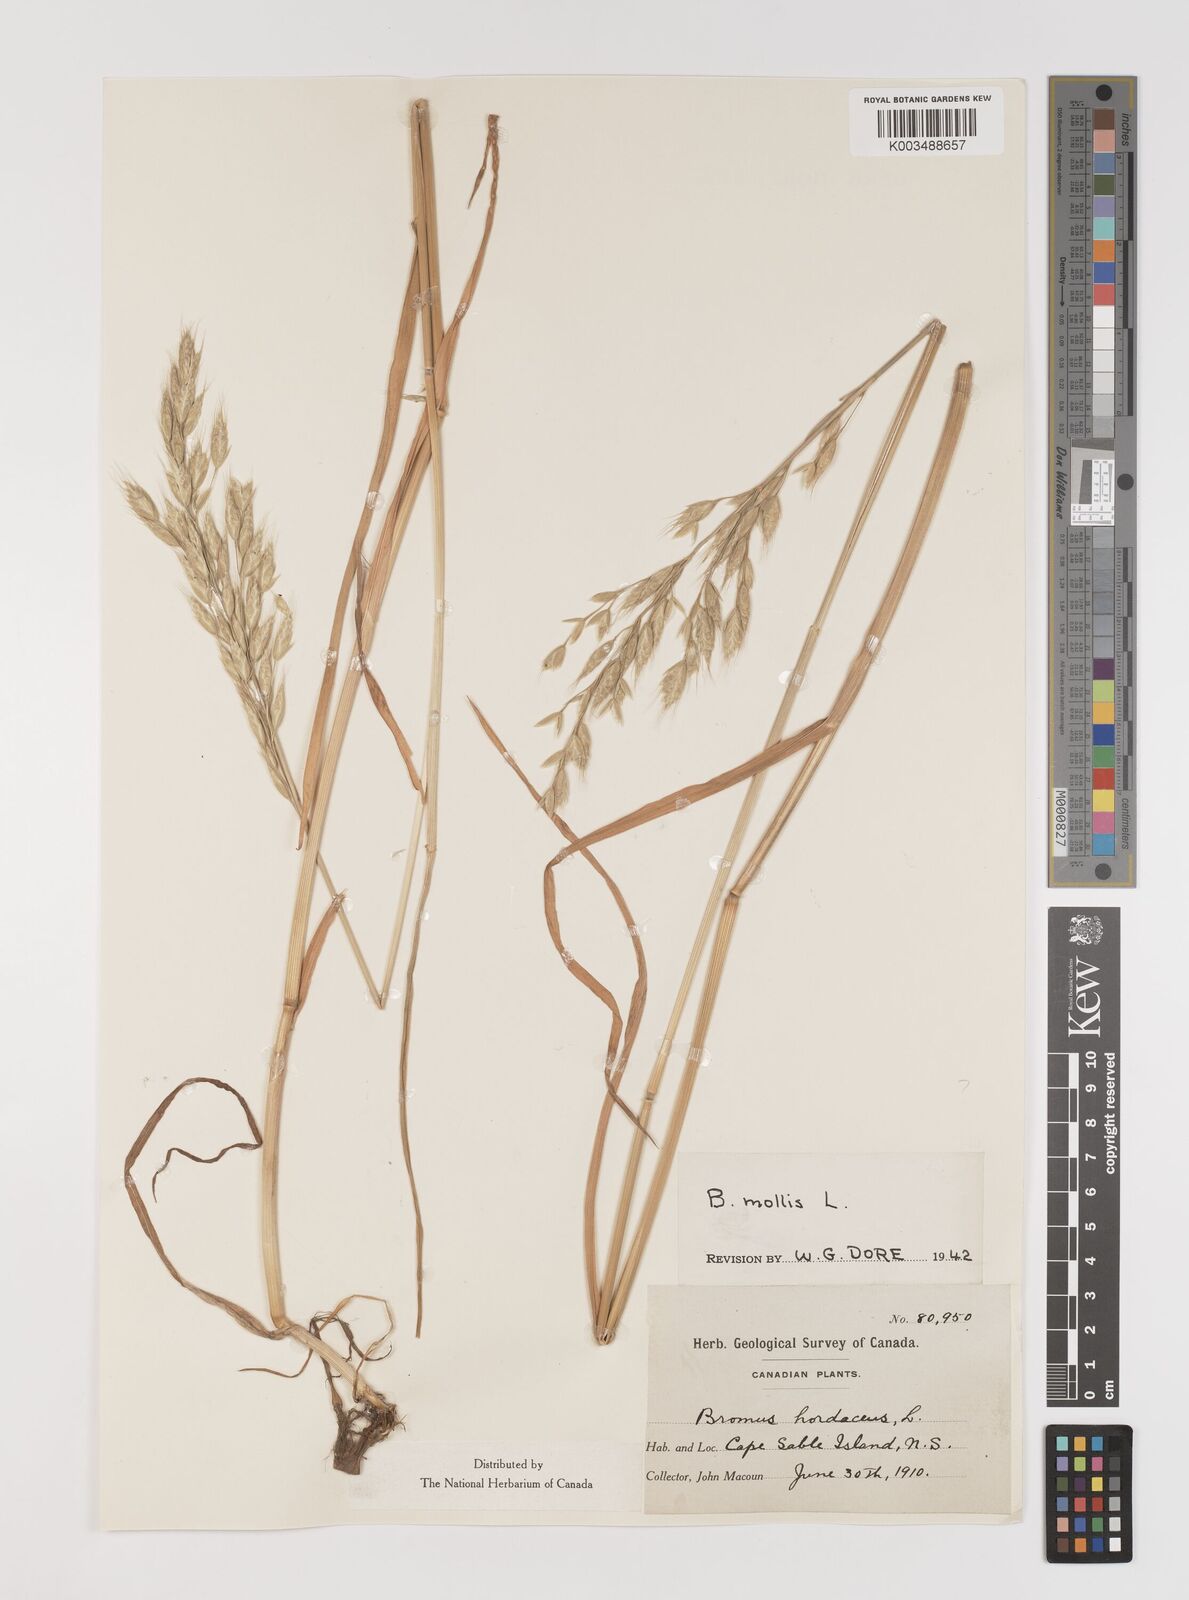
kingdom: Plantae
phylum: Tracheophyta
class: Liliopsida
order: Poales
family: Poaceae
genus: Bromus
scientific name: Bromus hordeaceus
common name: Soft brome
